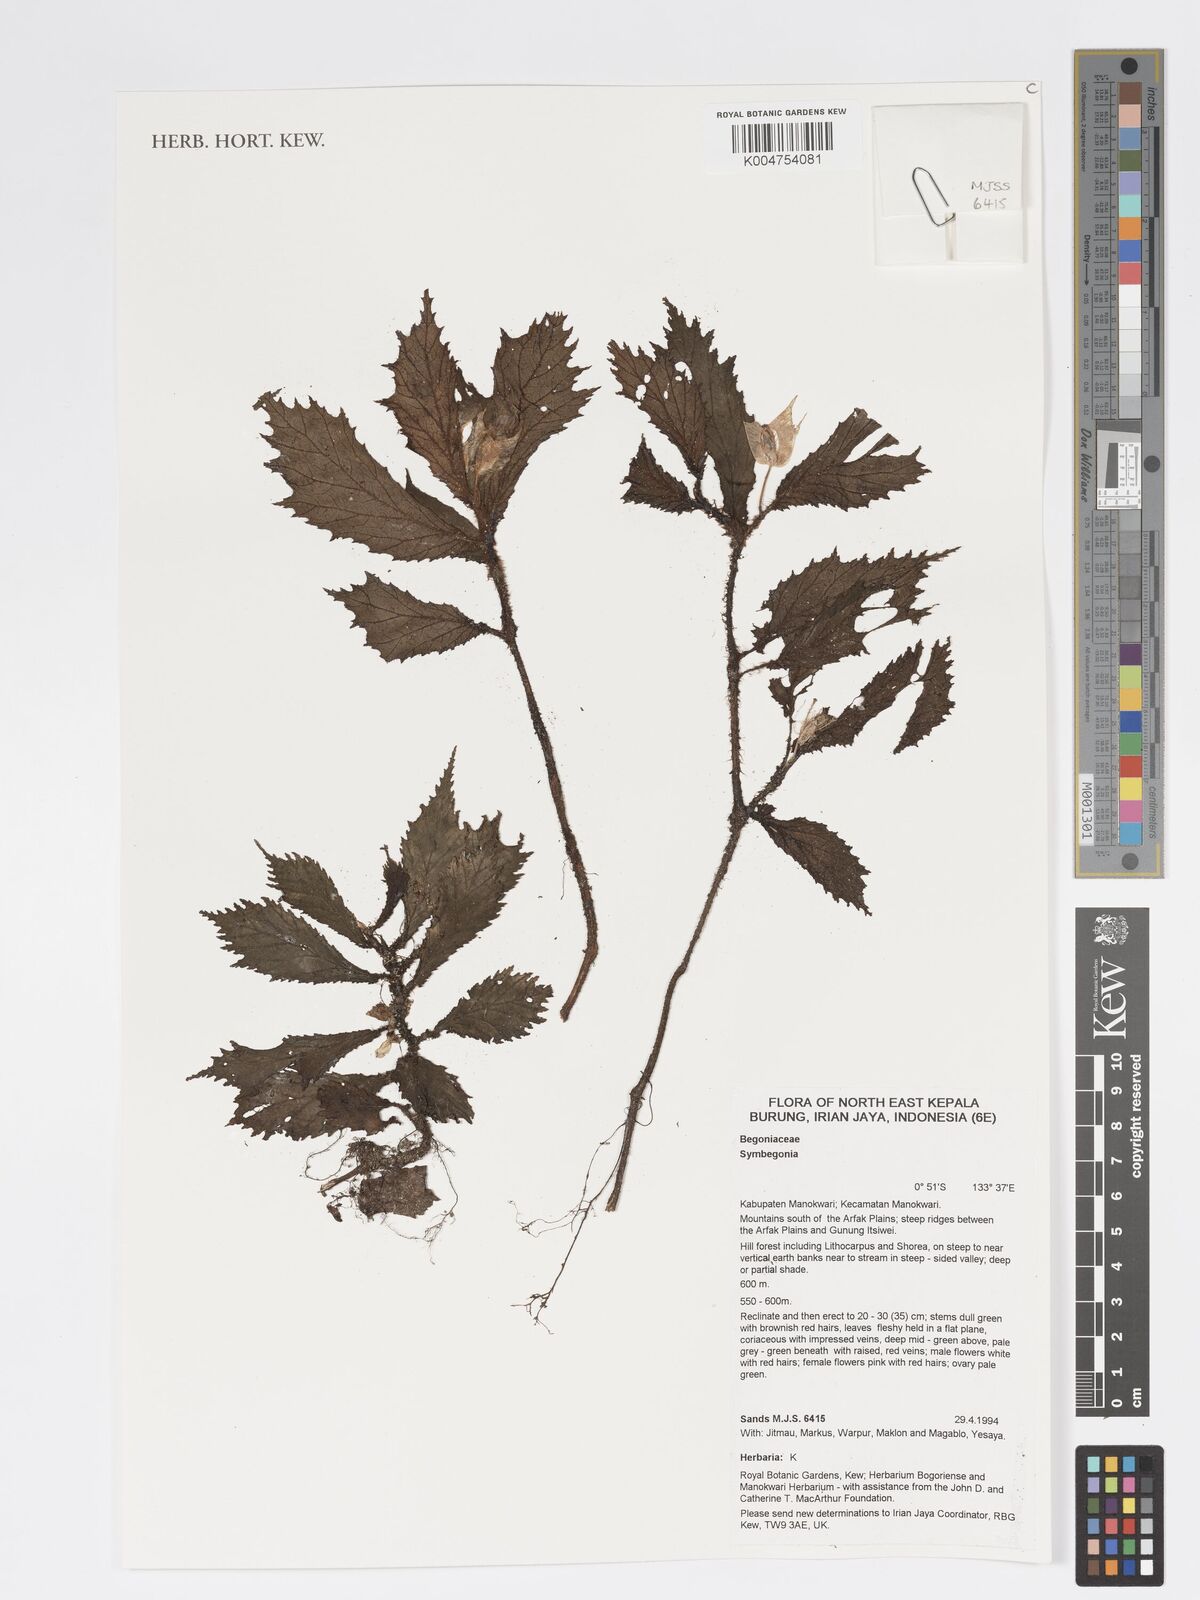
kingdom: Plantae
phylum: Tracheophyta
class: Magnoliopsida
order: Cucurbitales
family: Begoniaceae
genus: Begonia
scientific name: Begonia
